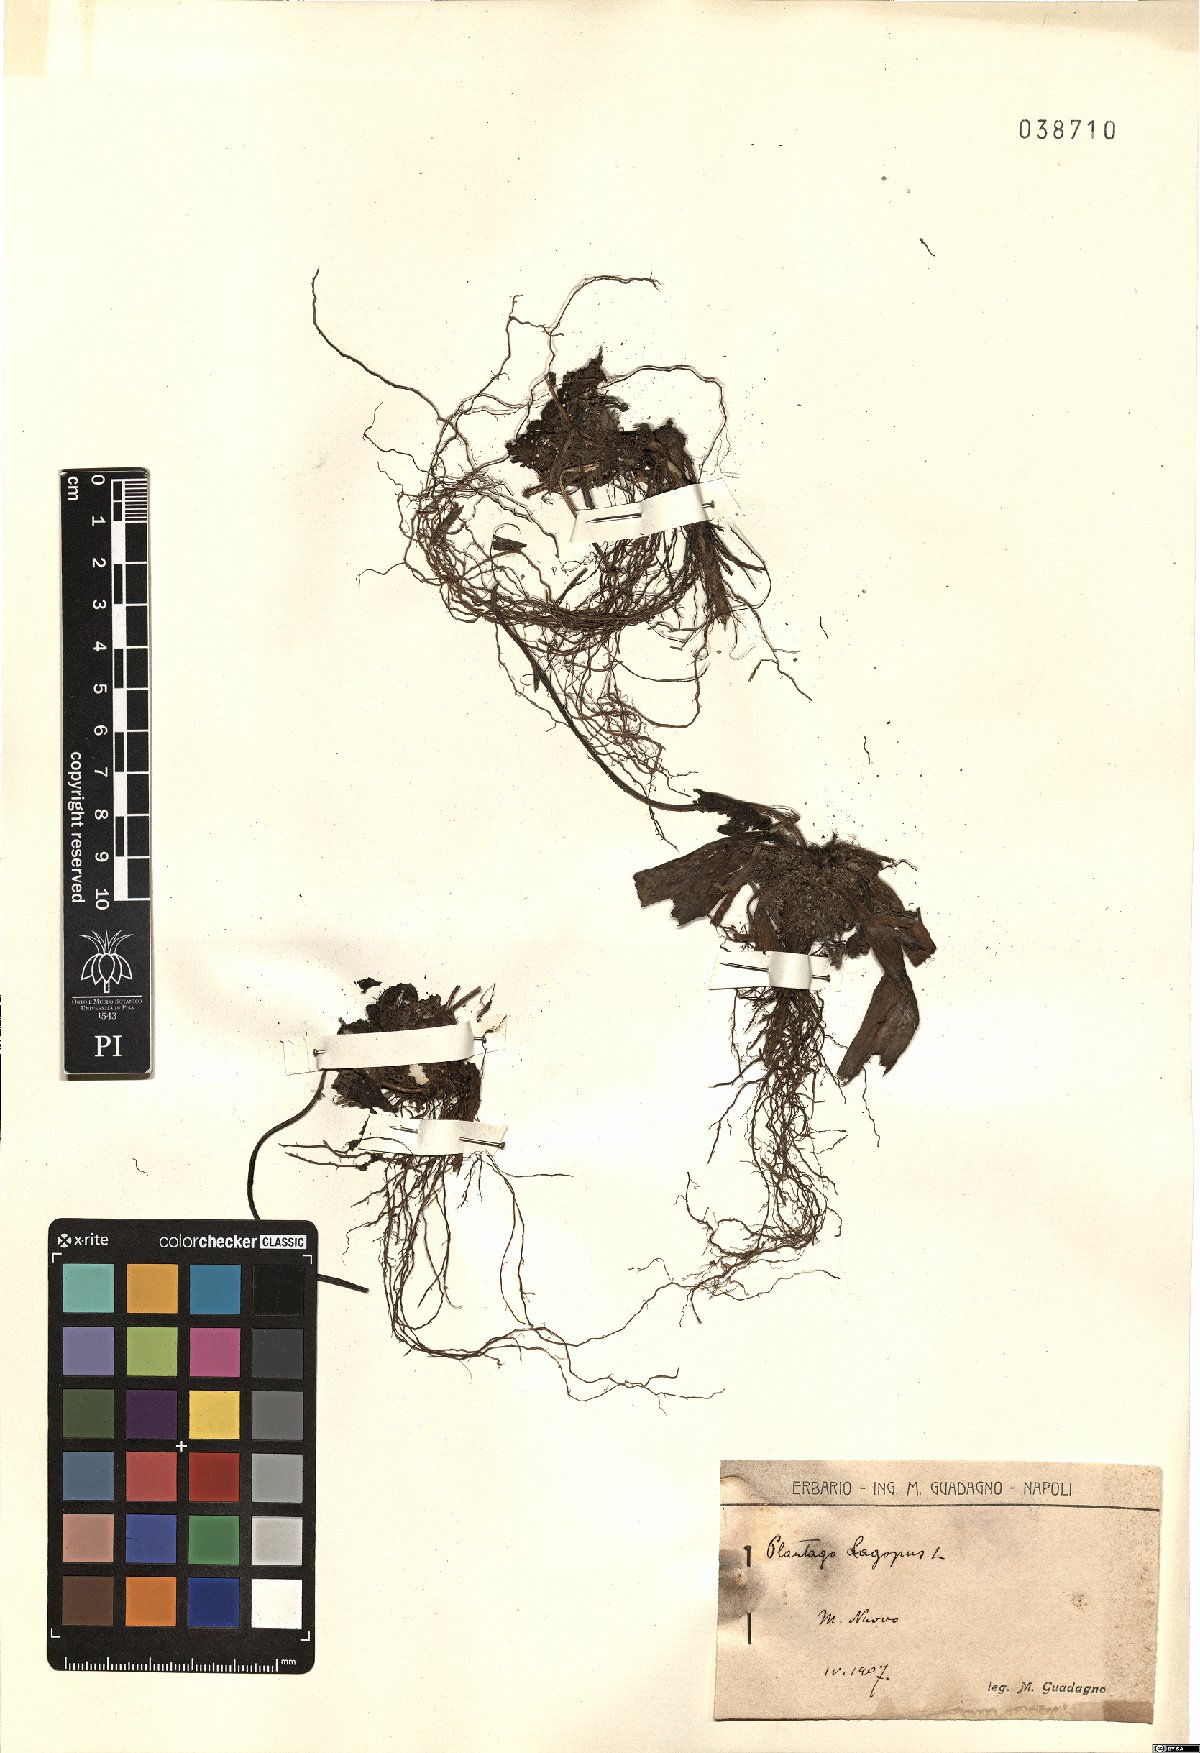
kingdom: Plantae
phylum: Tracheophyta
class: Magnoliopsida
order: Lamiales
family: Plantaginaceae
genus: Plantago
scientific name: Plantago lagopus
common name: Hare-foot plantain
